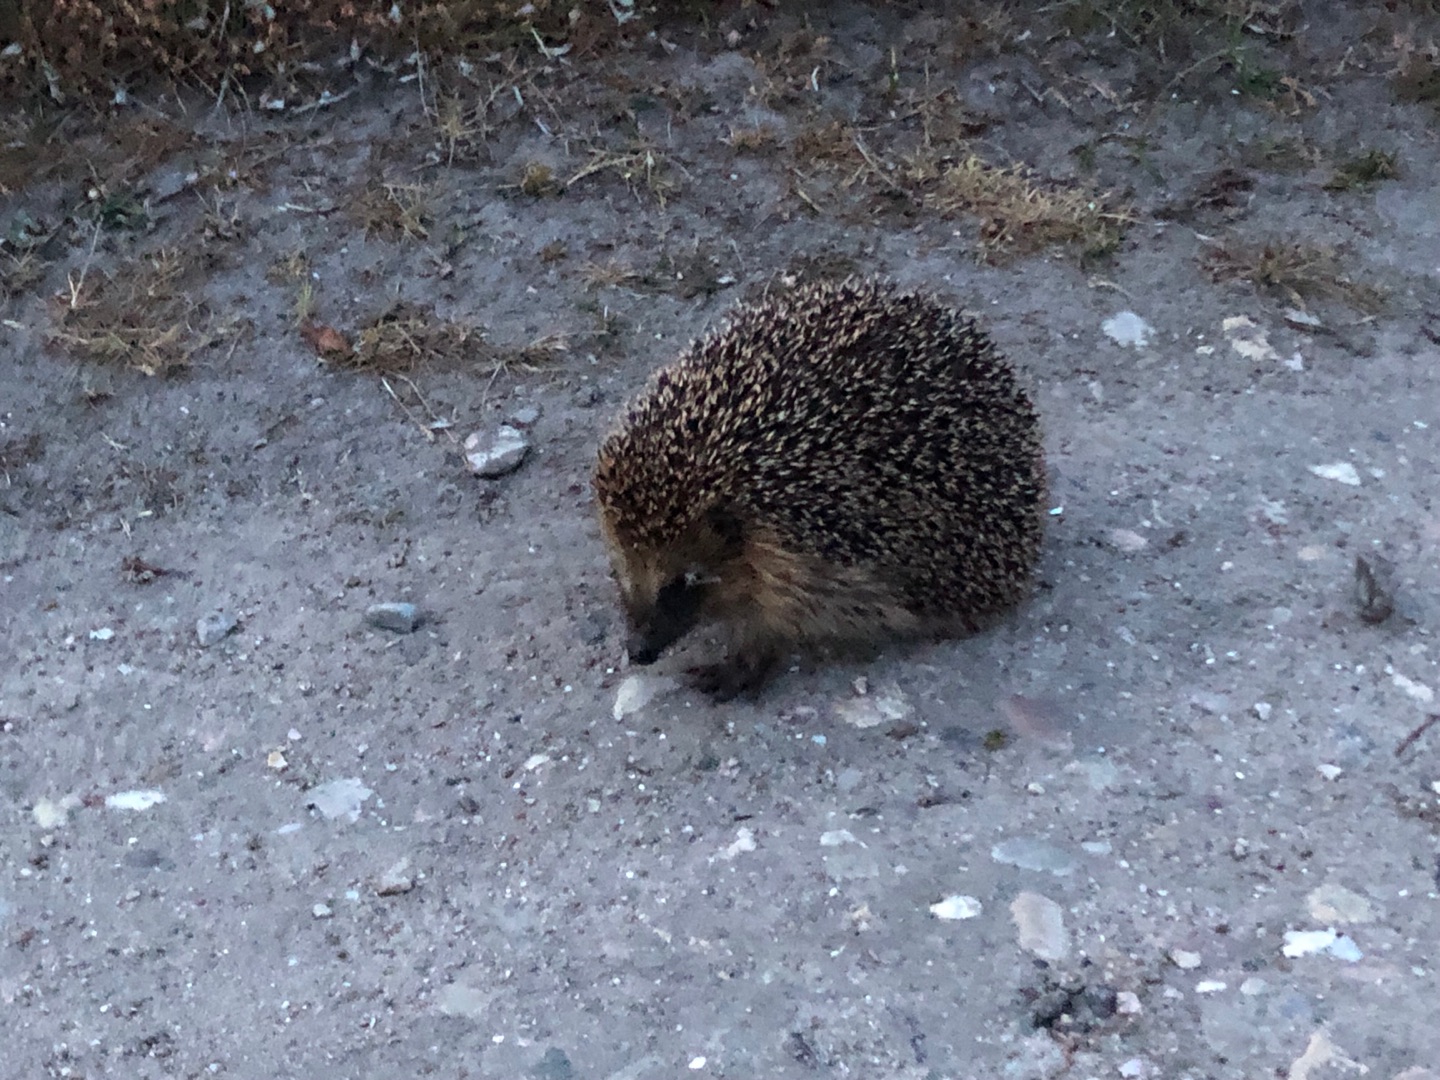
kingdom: Animalia
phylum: Chordata
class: Mammalia
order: Erinaceomorpha
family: Erinaceidae
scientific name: Erinaceidae
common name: Pindsvin
